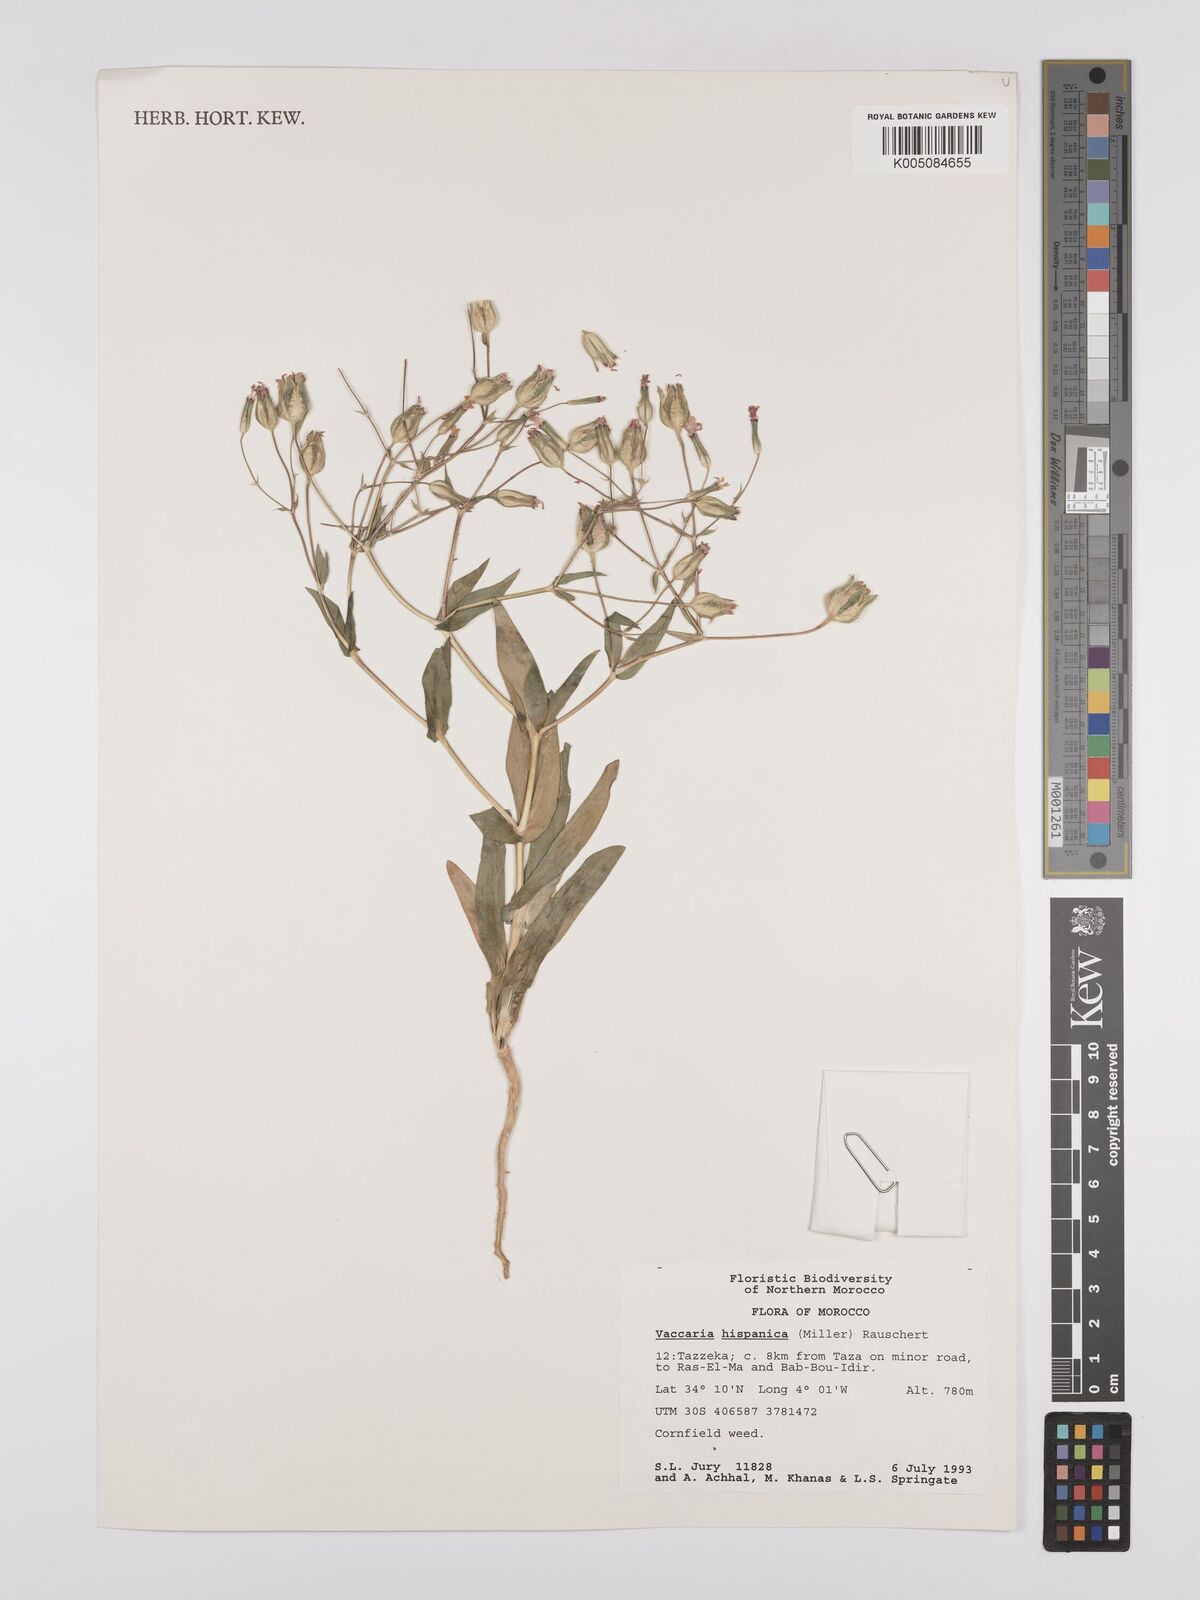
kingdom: Plantae
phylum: Tracheophyta
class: Magnoliopsida
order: Caryophyllales
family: Caryophyllaceae
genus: Gypsophila
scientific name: Gypsophila vaccaria
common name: Cow soapwort
